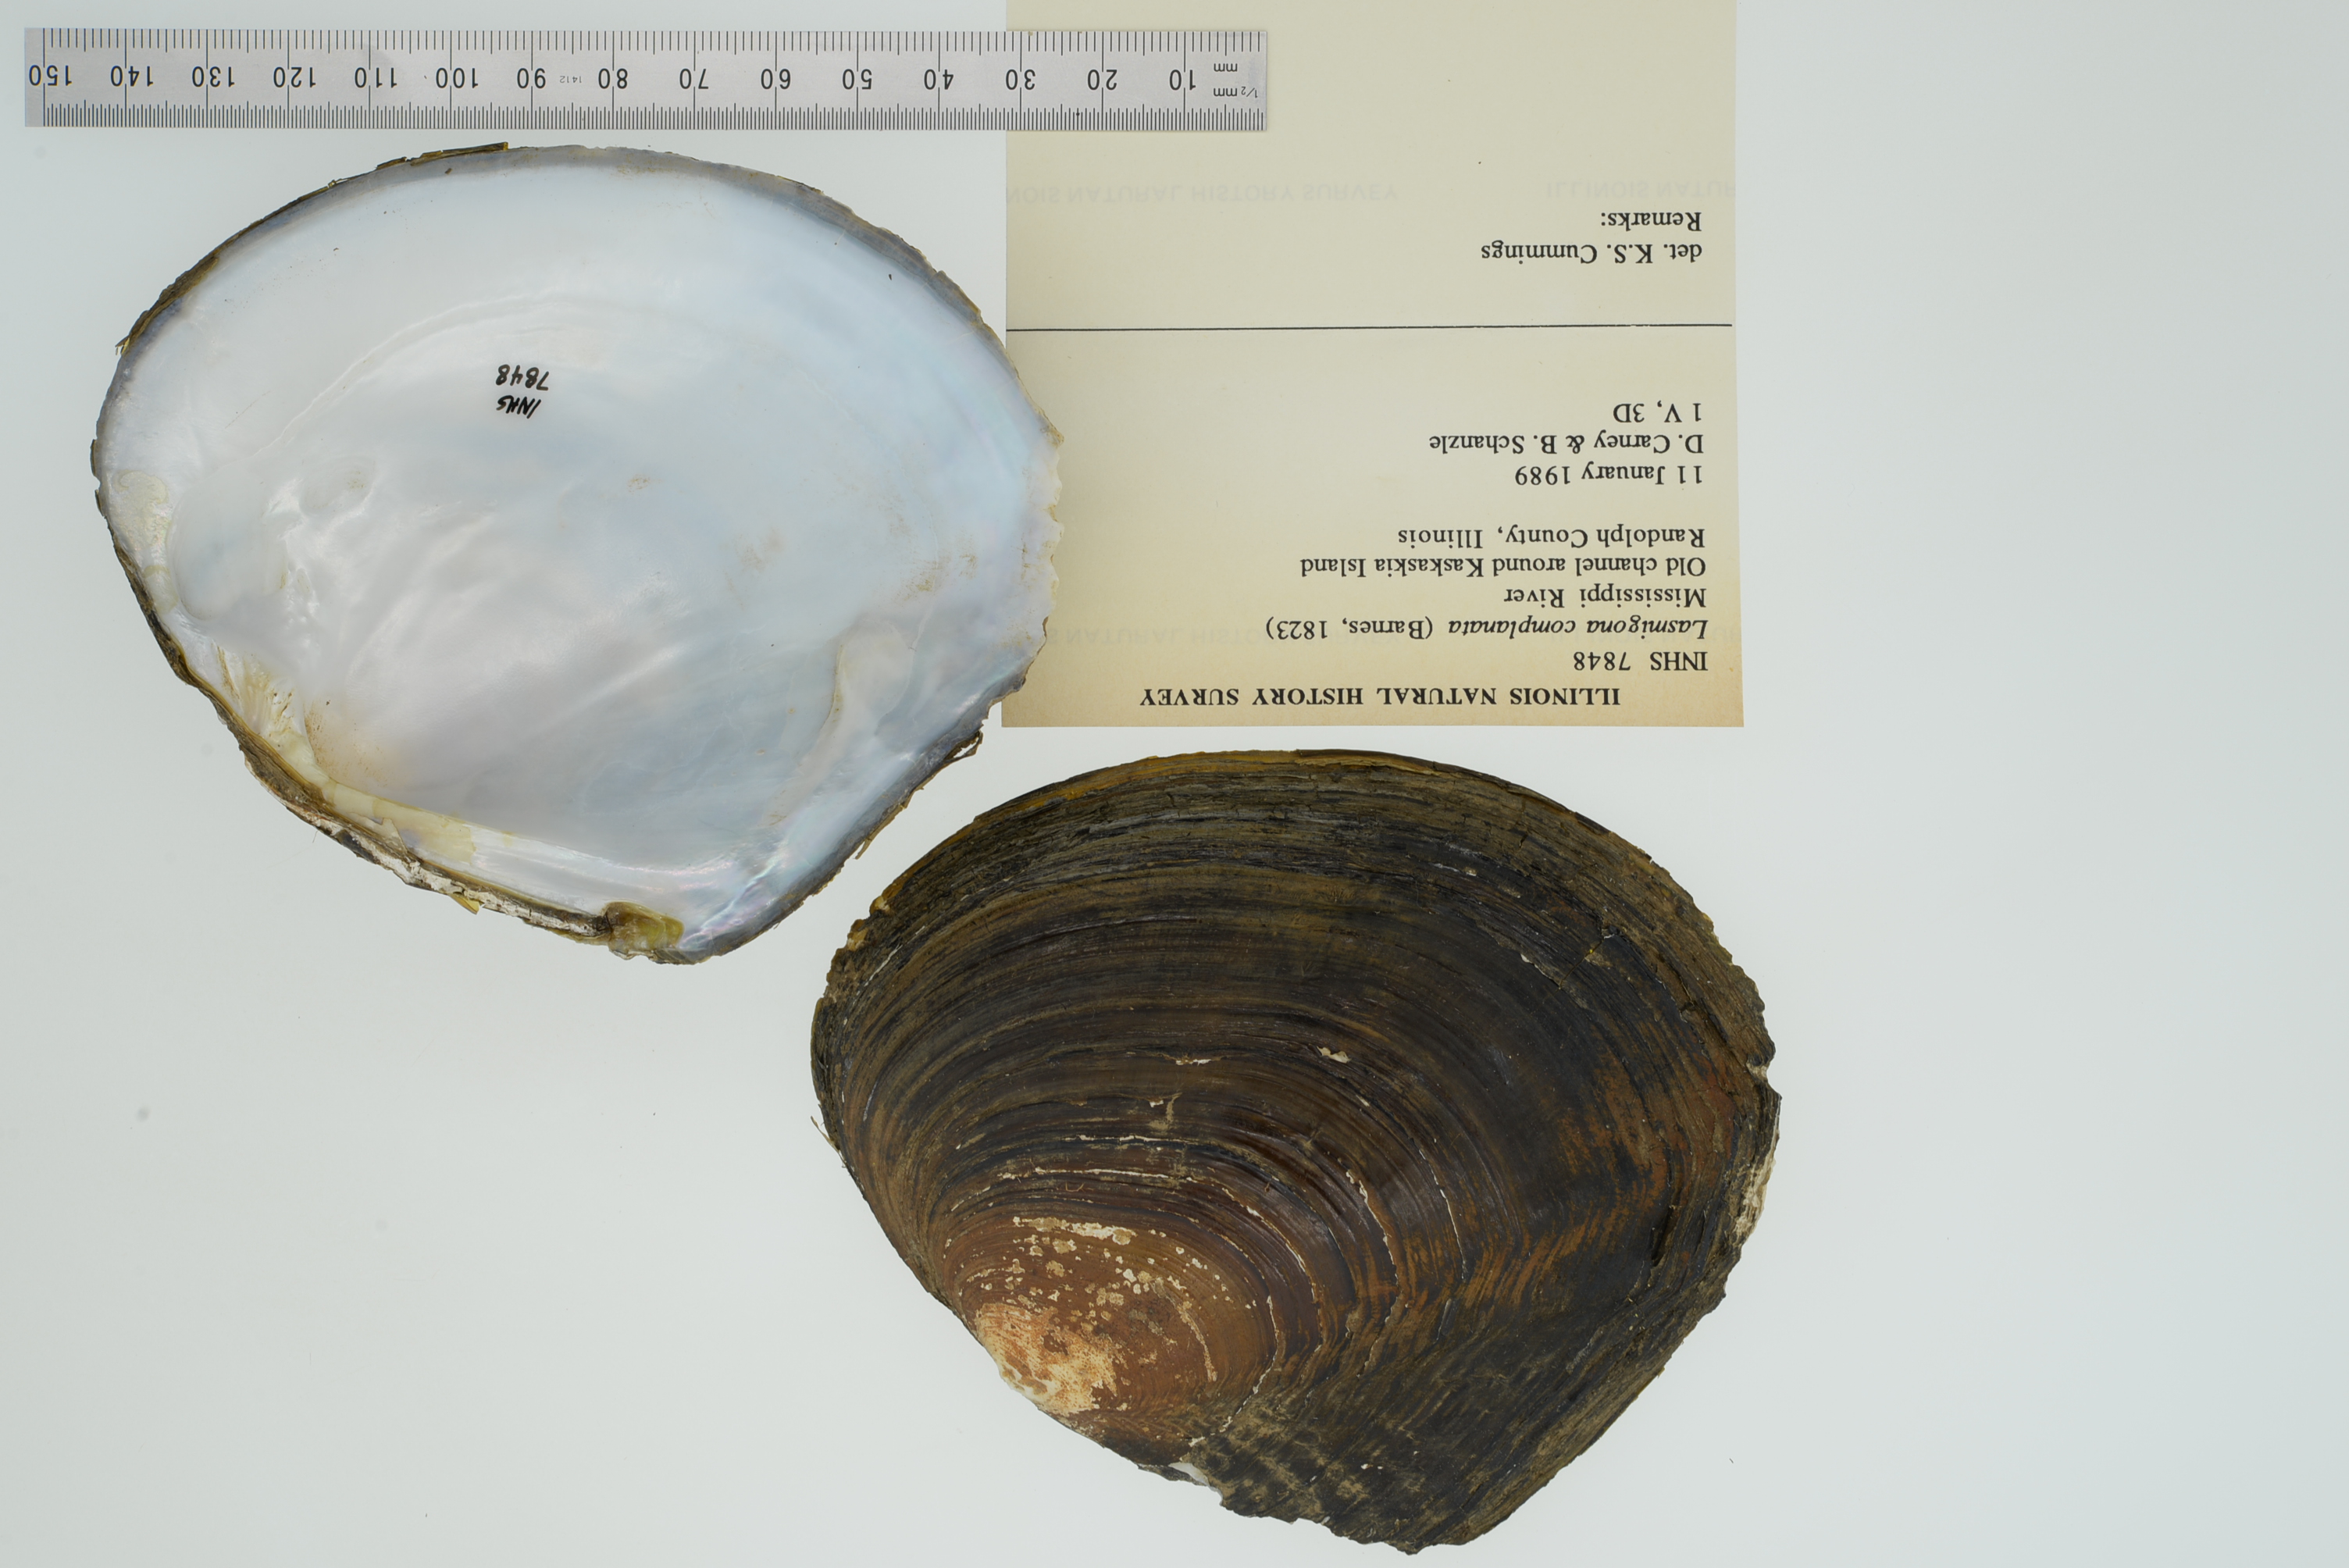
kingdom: Animalia
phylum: Mollusca
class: Bivalvia
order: Unionida
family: Unionidae
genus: Lasmigona
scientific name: Lasmigona complanata
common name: White heelsplitter
